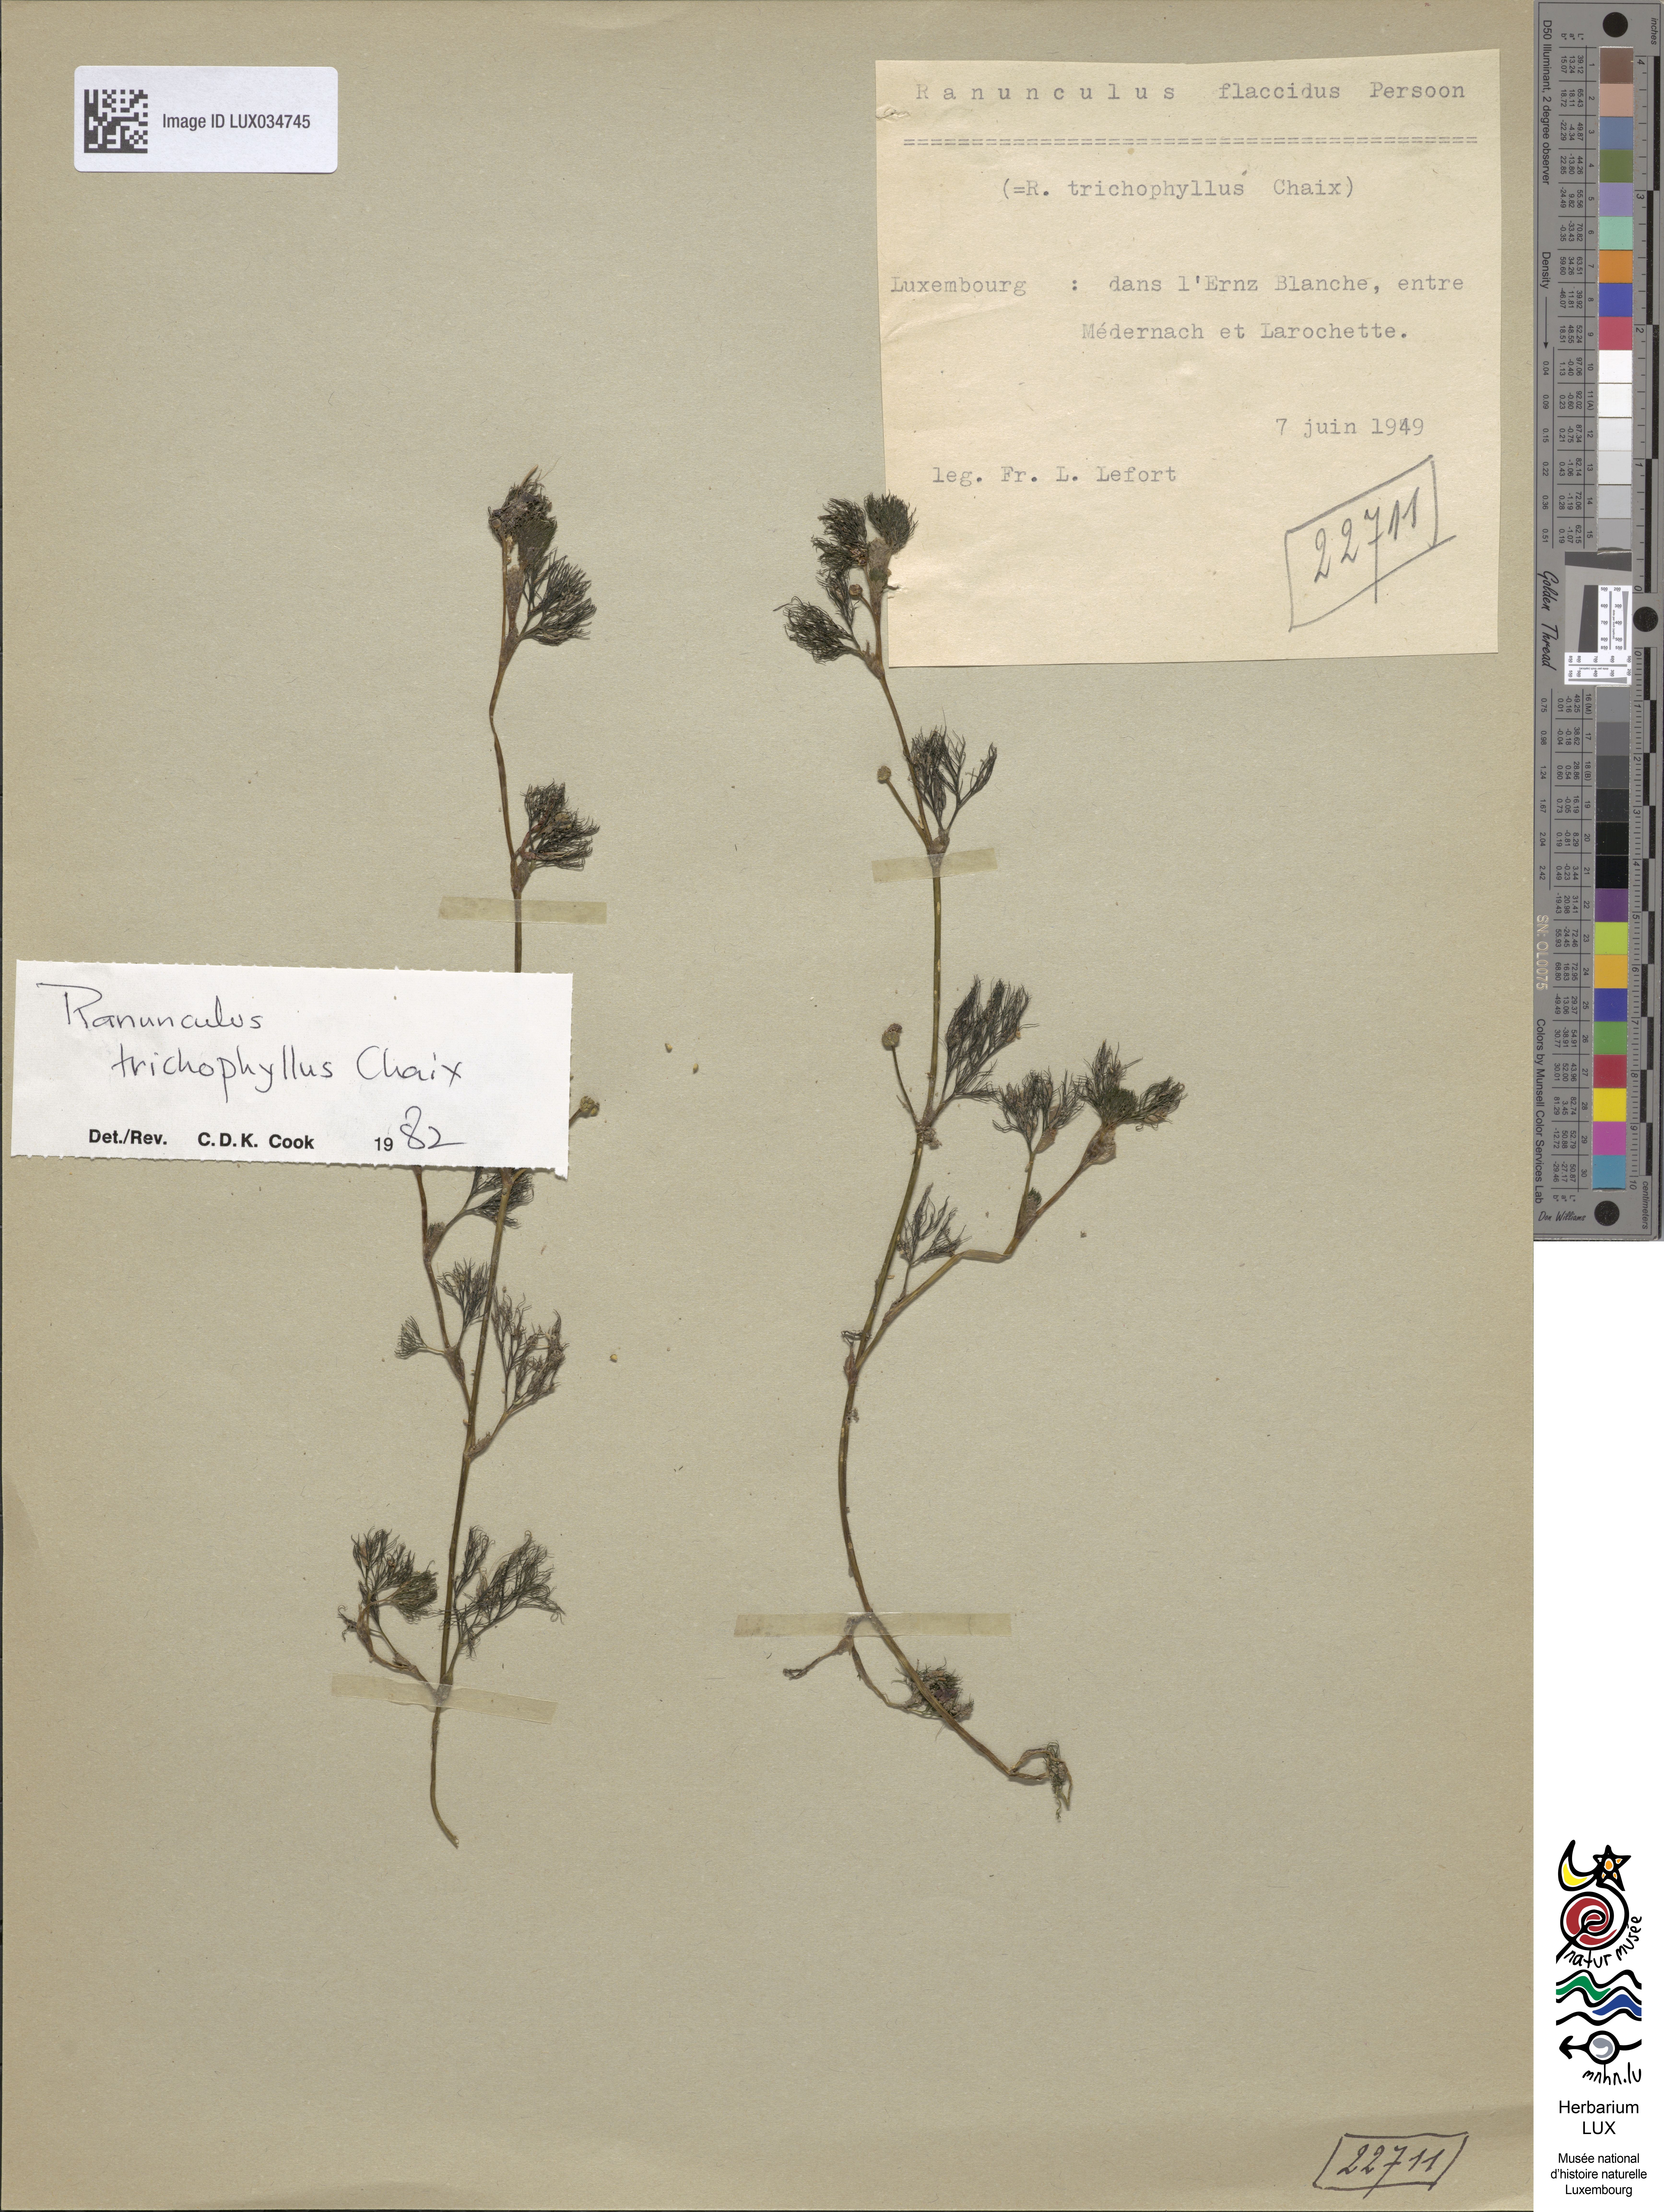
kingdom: Plantae
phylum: Tracheophyta
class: Magnoliopsida
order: Ranunculales
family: Ranunculaceae
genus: Ranunculus
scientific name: Ranunculus trichophyllus
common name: Thread-leaved water-crowfoot
